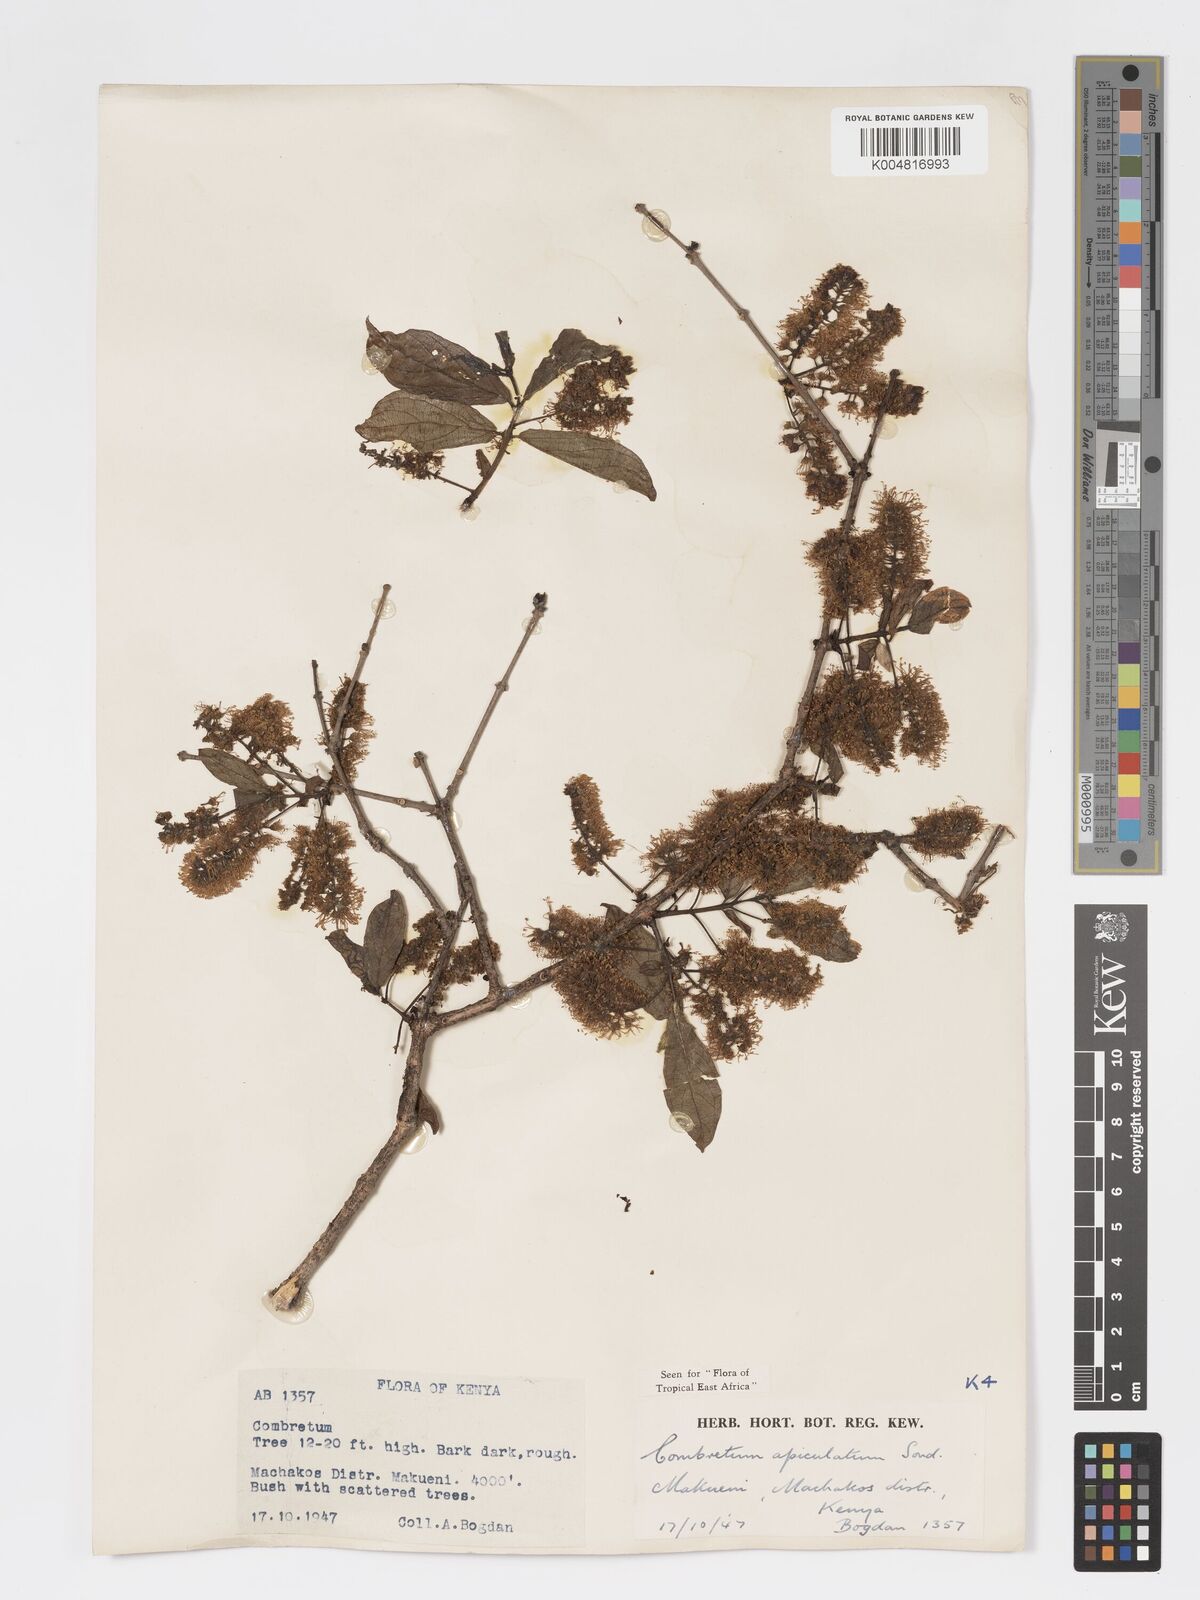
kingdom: Plantae
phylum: Tracheophyta
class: Magnoliopsida
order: Myrtales
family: Combretaceae
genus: Combretum
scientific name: Combretum apiculatum
